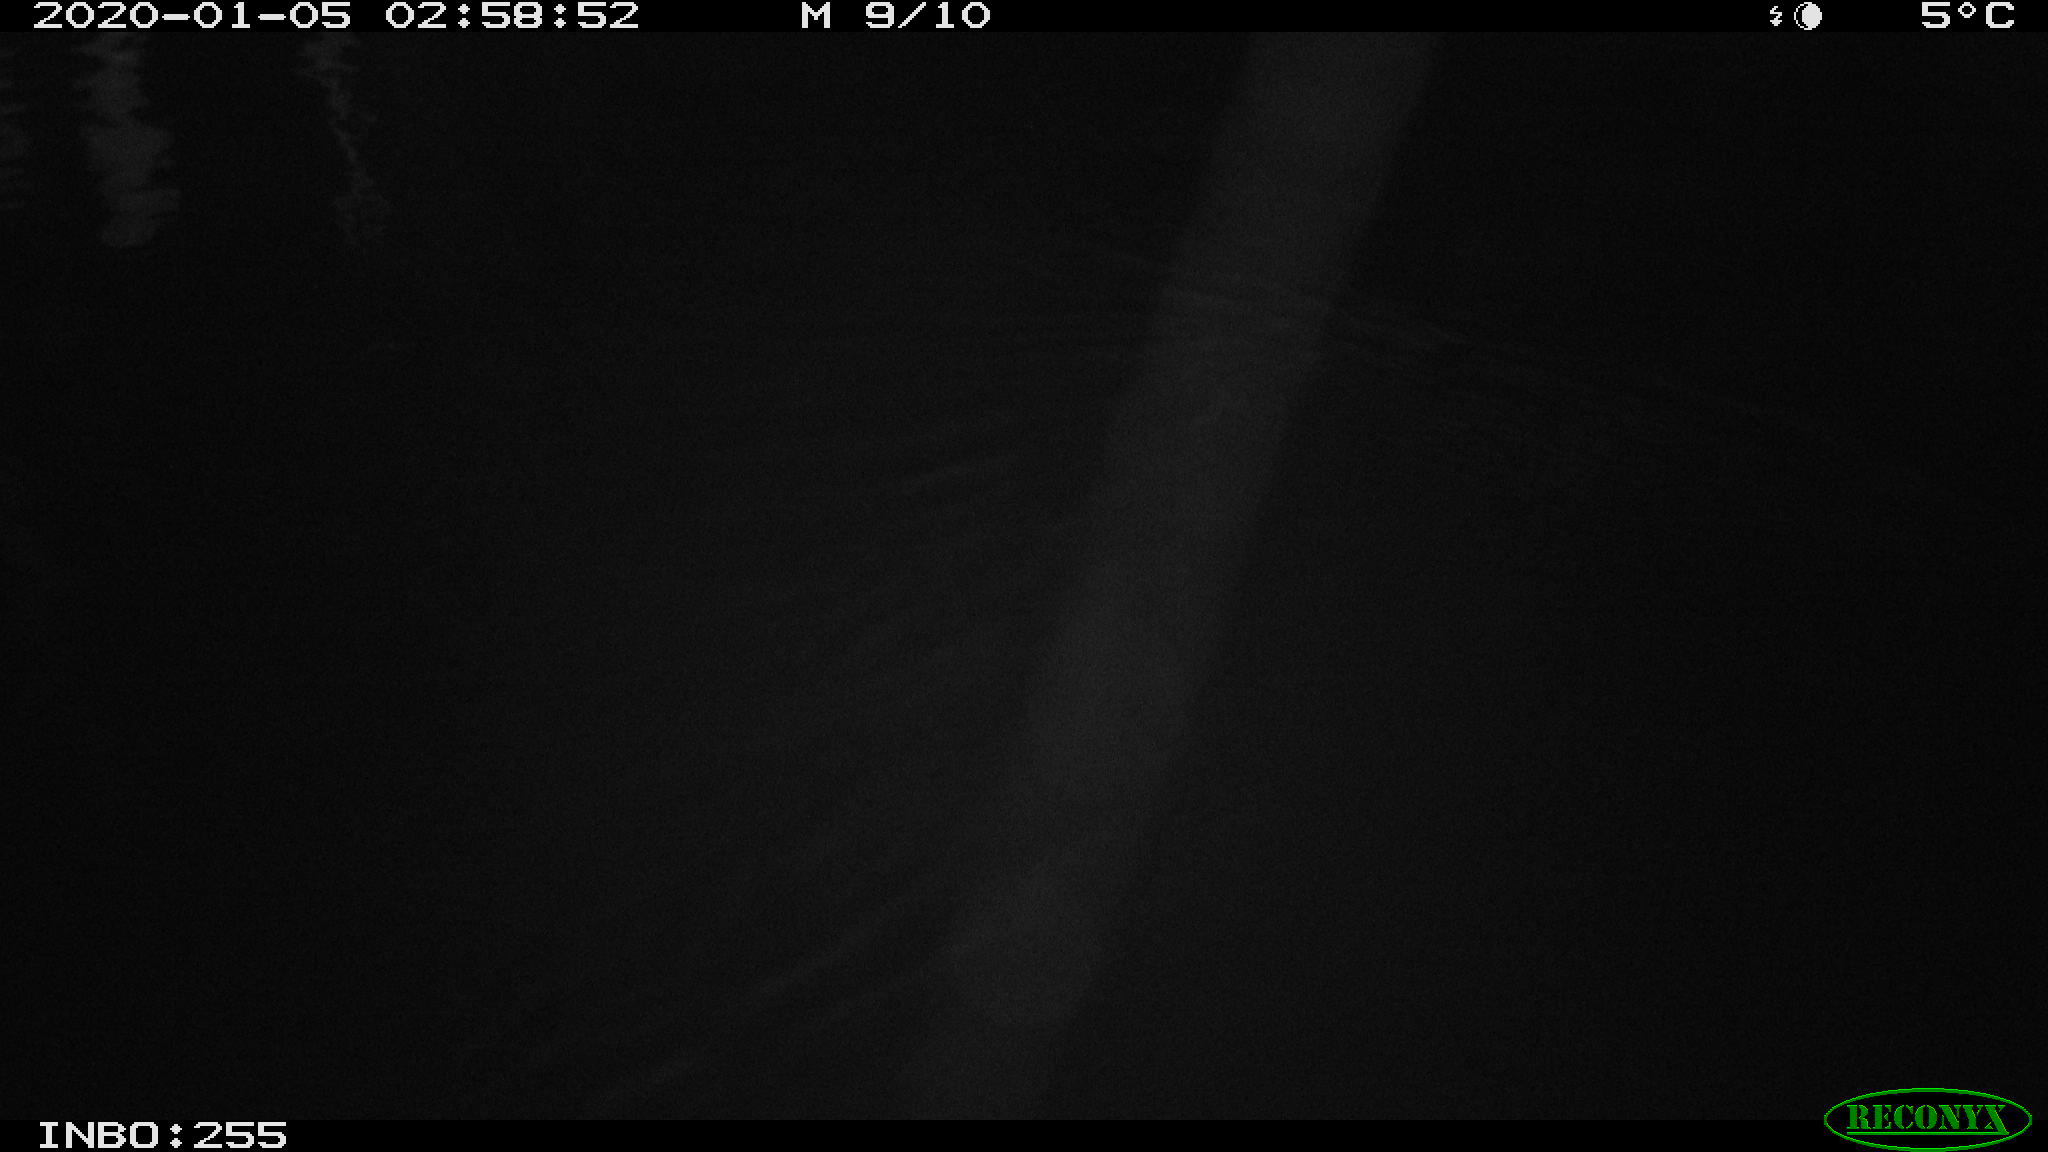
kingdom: Animalia
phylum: Chordata
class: Mammalia
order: Rodentia
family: Cricetidae
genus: Ondatra
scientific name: Ondatra zibethicus
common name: Muskrat
